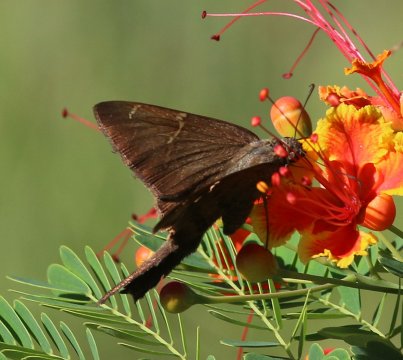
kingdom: Animalia
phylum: Arthropoda
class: Insecta
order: Lepidoptera
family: Hesperiidae
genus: Urbanus
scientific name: Urbanus procne
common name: Brown Longtail
